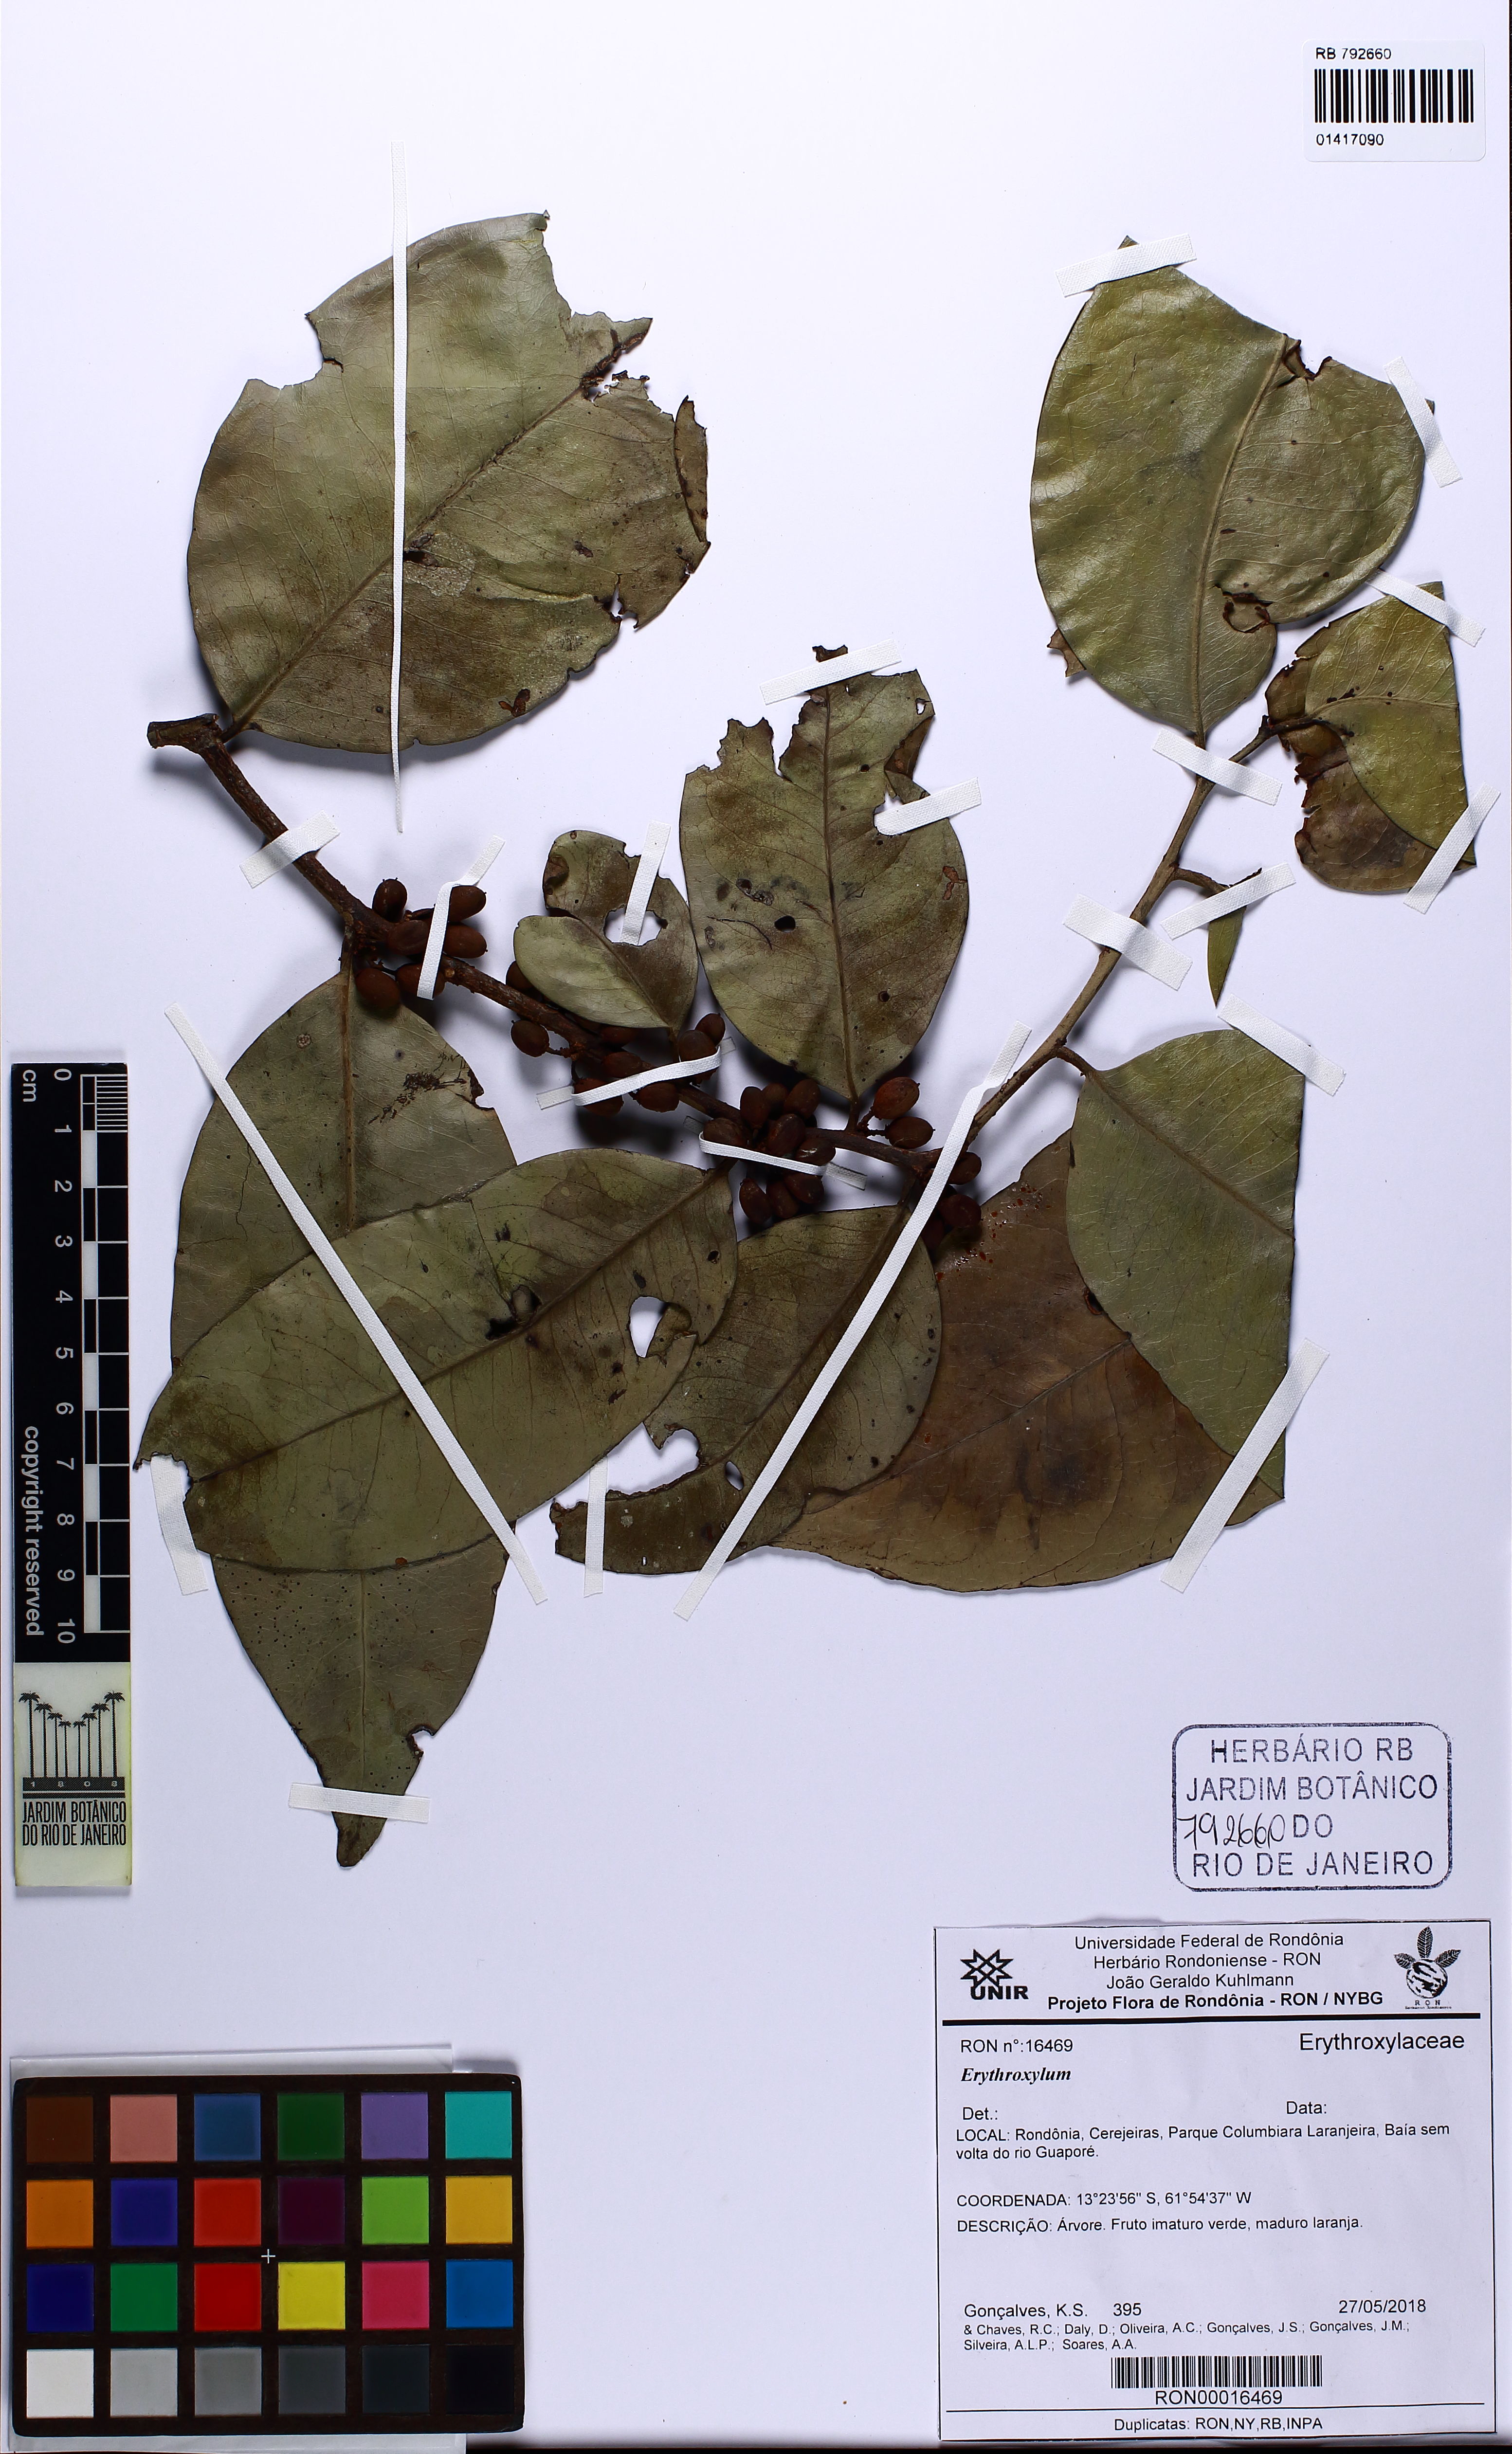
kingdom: Plantae
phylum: Tracheophyta
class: Magnoliopsida
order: Malpighiales
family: Erythroxylaceae
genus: Erythroxylum
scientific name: Erythroxylum
